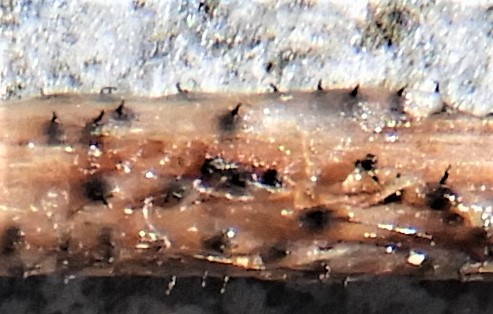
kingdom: Fungi
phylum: Ascomycota
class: Sordariomycetes
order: Diaporthales
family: Gnomoniaceae
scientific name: Gnomoniaceae
